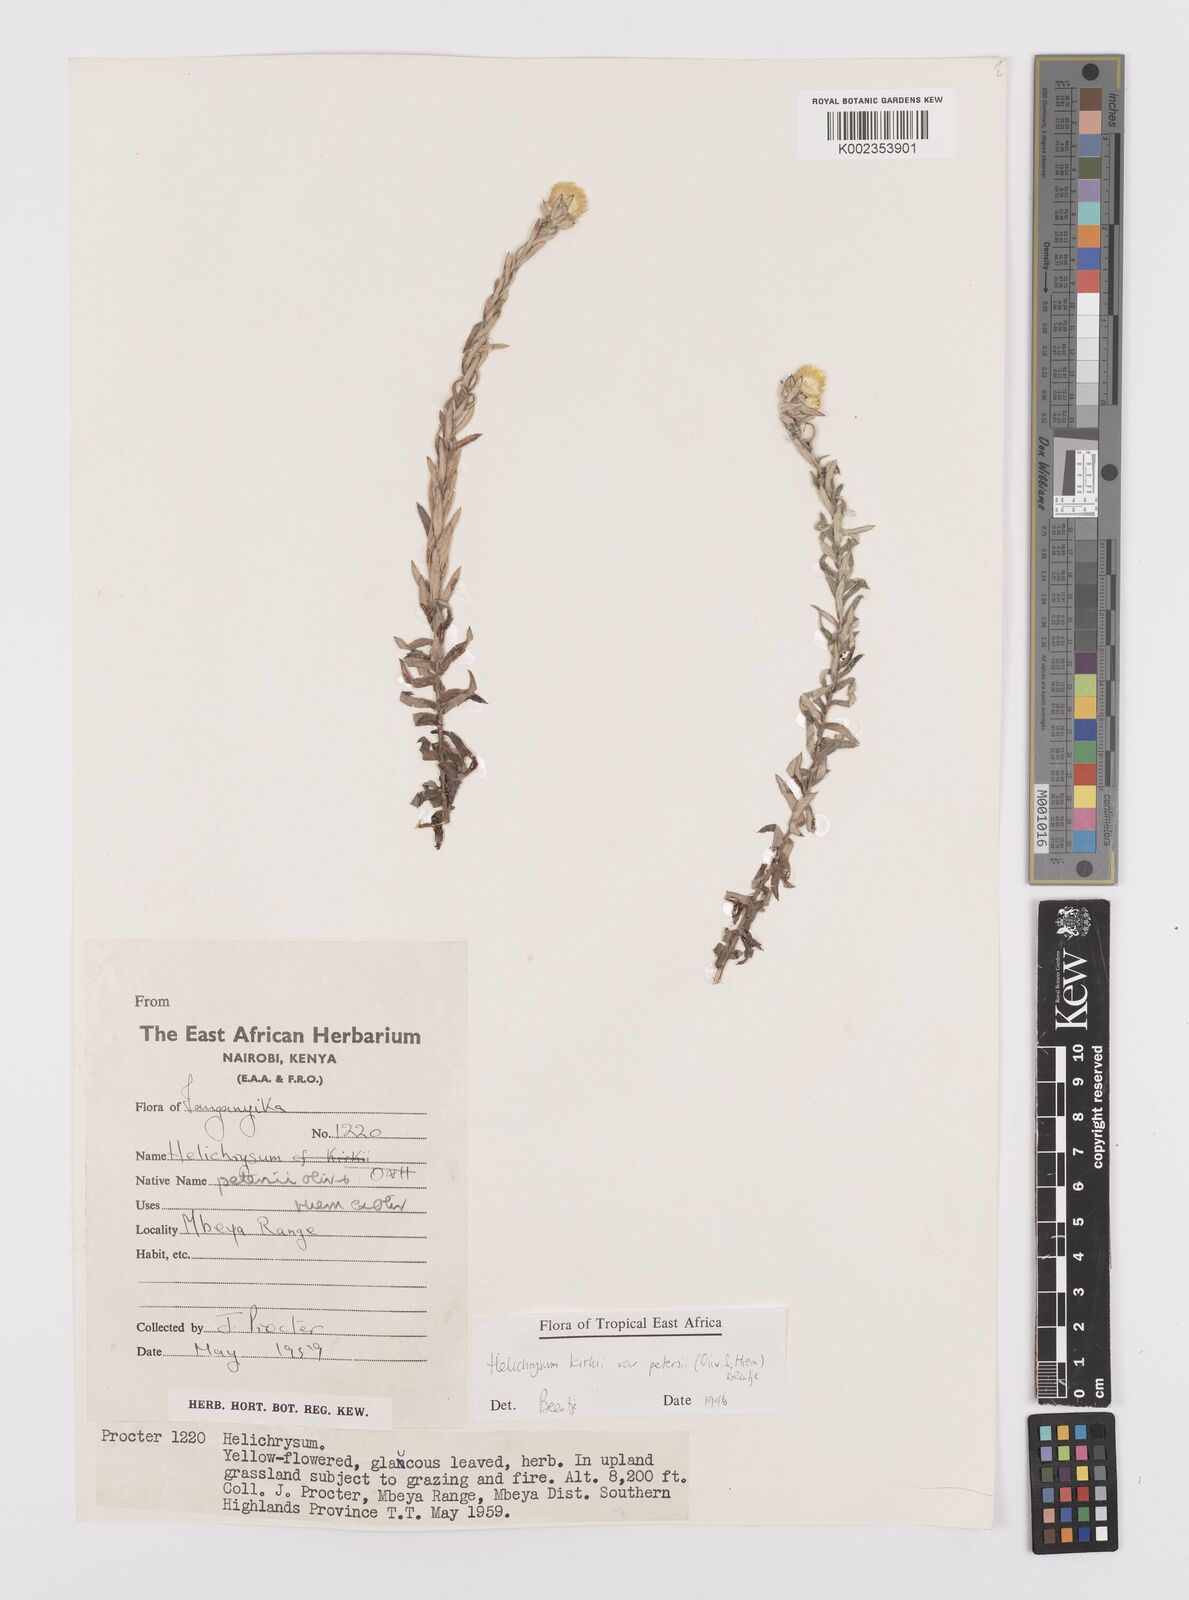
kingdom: Plantae
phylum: Tracheophyta
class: Magnoliopsida
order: Asterales
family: Asteraceae
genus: Helichrysum
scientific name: Helichrysum kirkii
